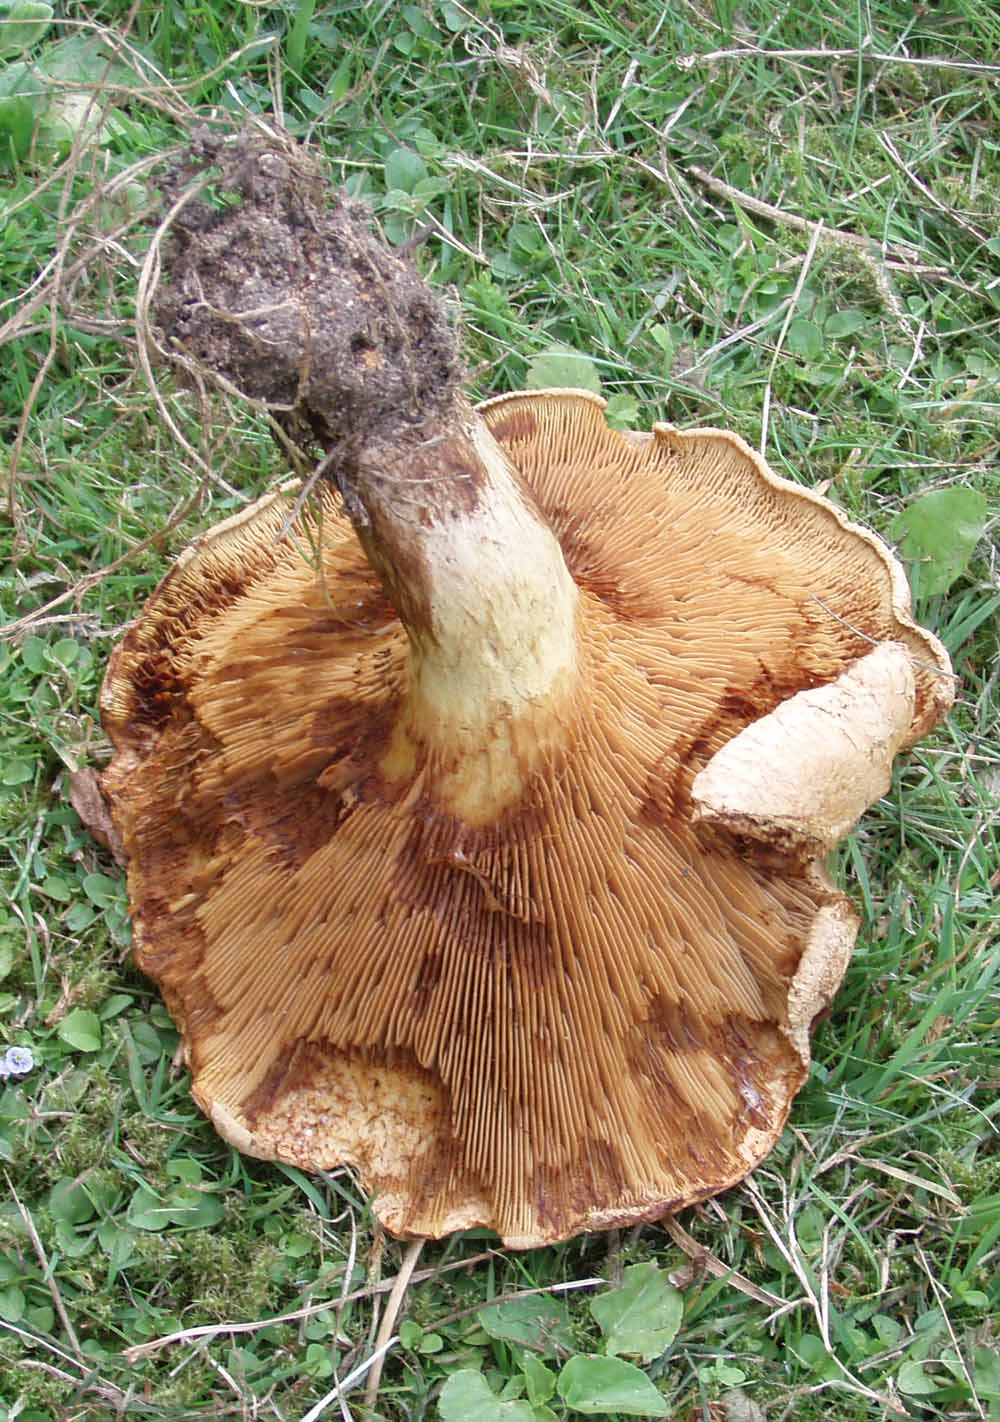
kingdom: Fungi
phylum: Basidiomycota
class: Agaricomycetes
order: Boletales
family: Paxillaceae
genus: Paxillus
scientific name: Paxillus involutus
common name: almindelig netbladhat
